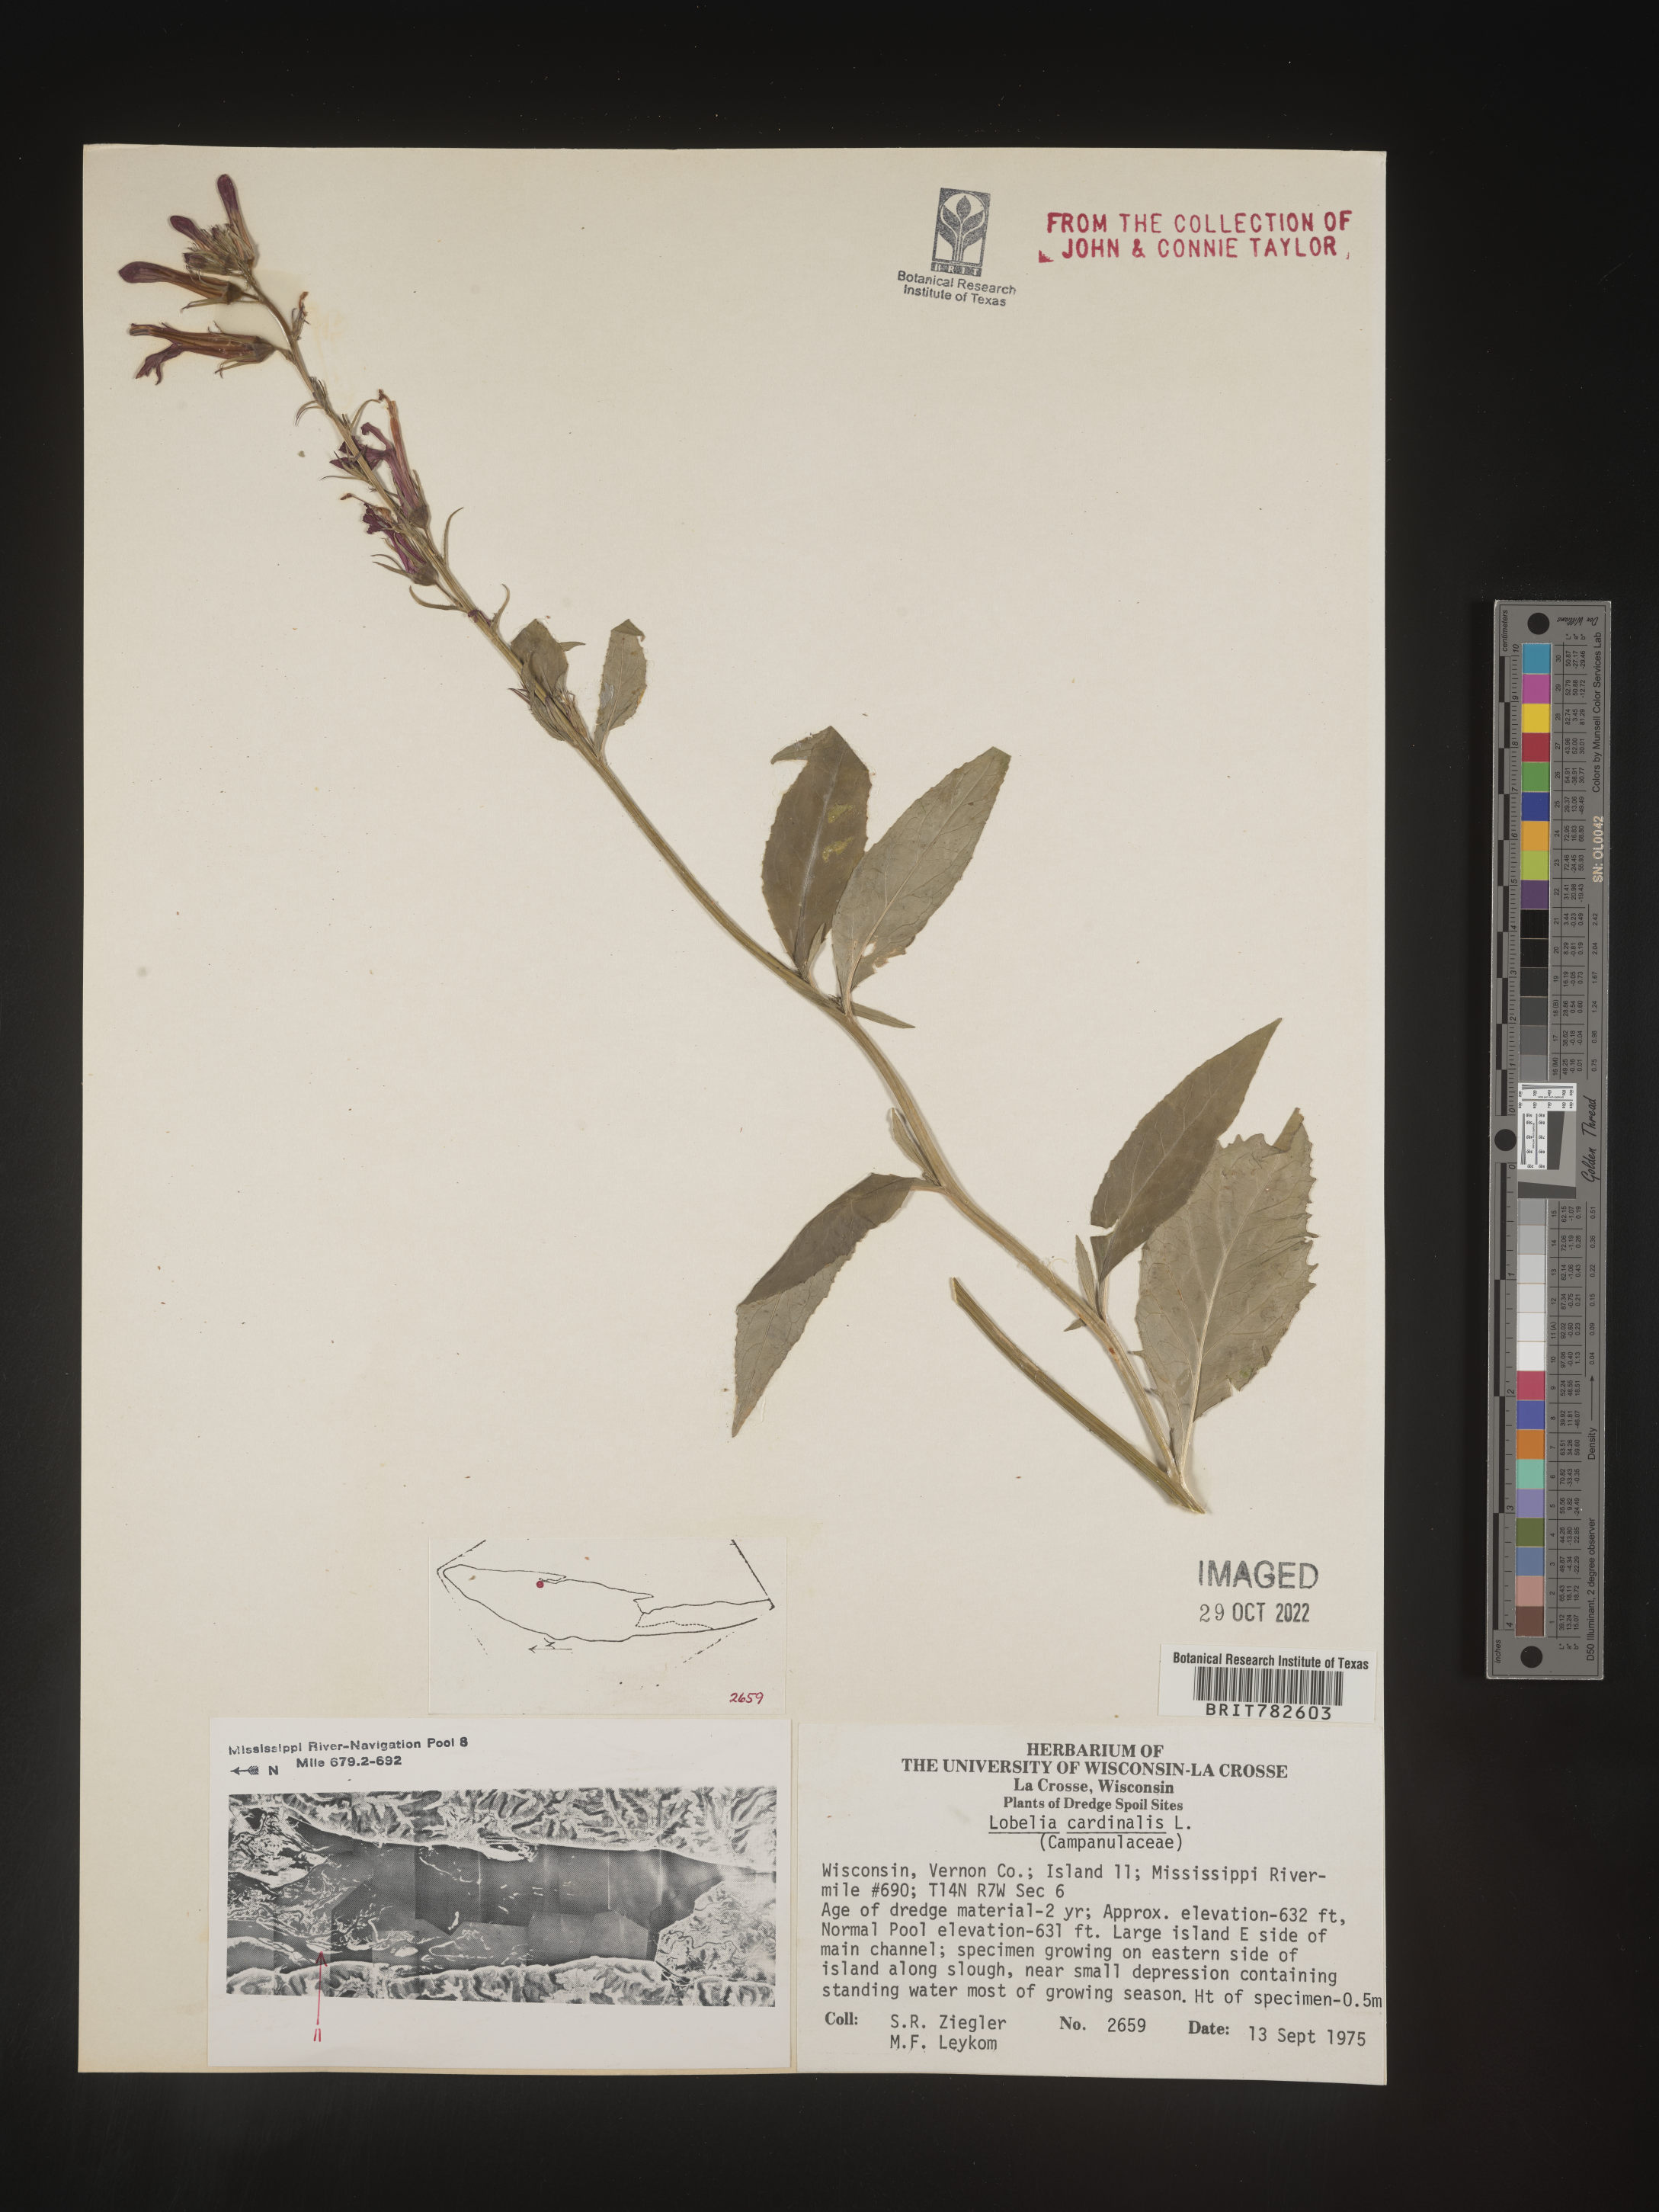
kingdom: Plantae
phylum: Tracheophyta
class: Magnoliopsida
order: Asterales
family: Campanulaceae
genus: Lobelia
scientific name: Lobelia cardinalis
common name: Cardinal flower
